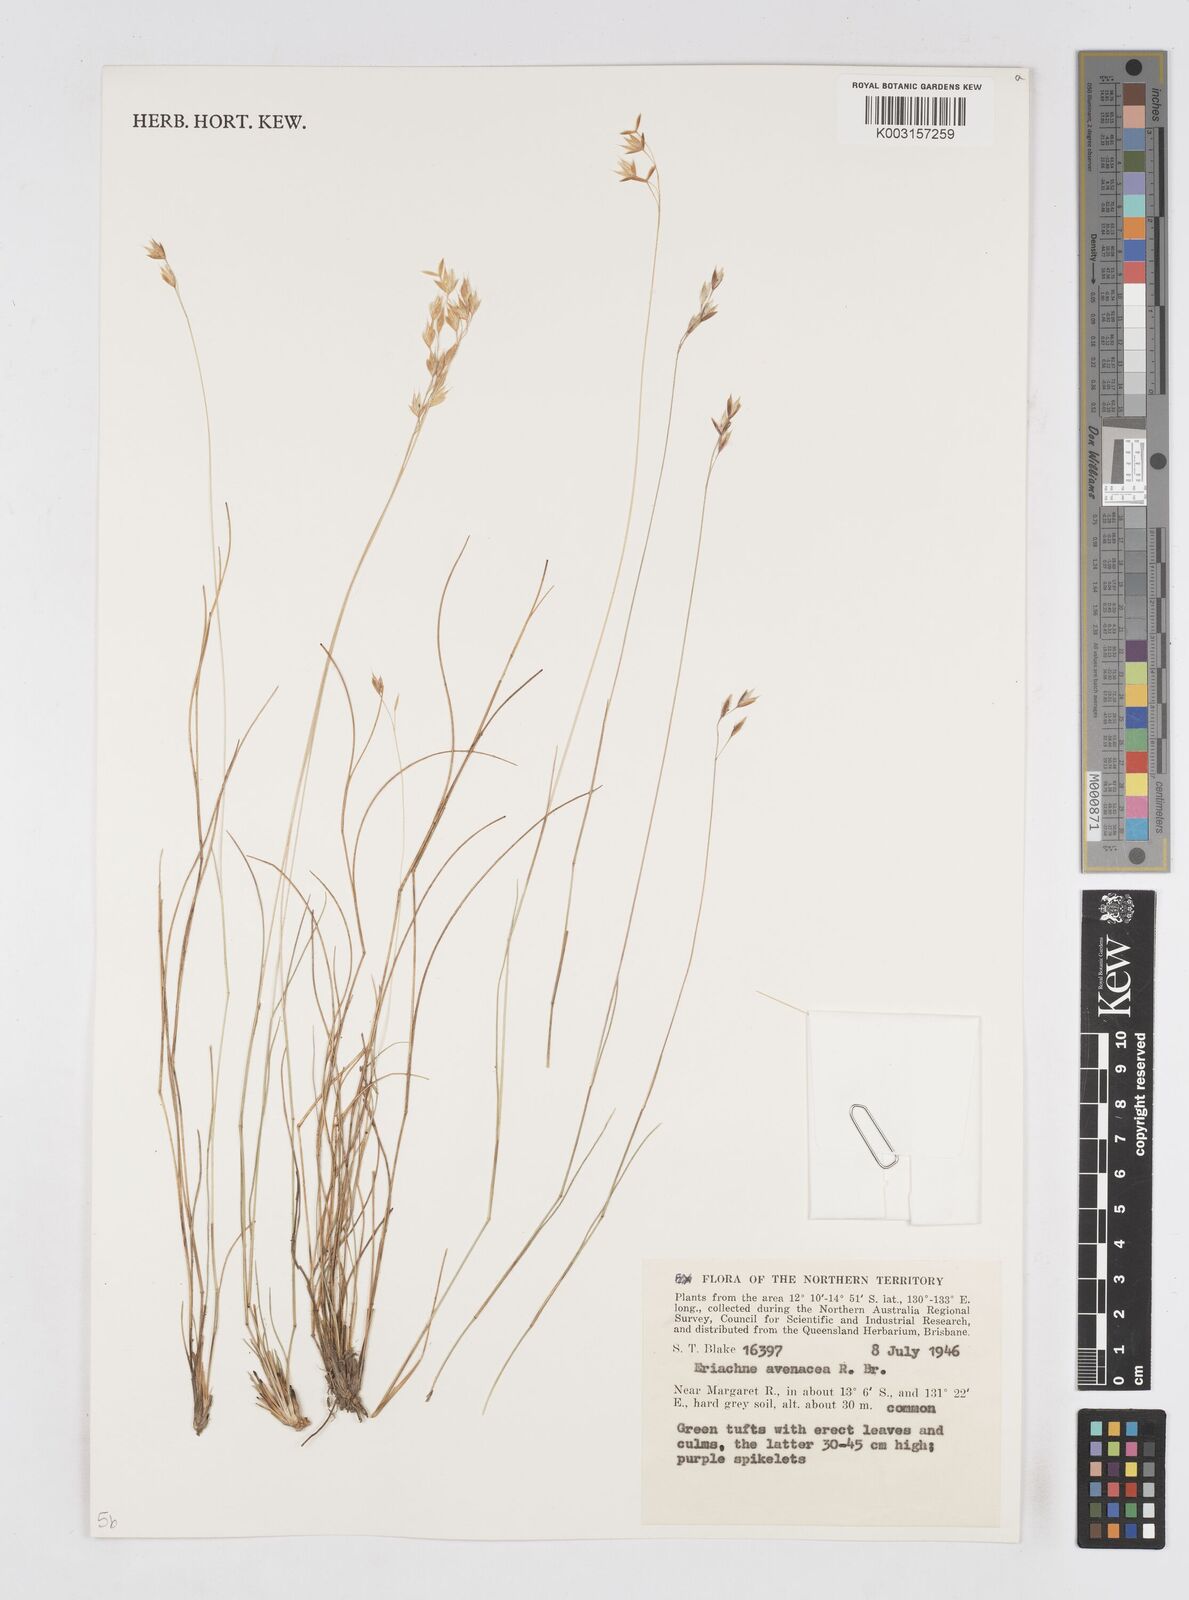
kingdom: Plantae
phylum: Tracheophyta
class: Liliopsida
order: Poales
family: Poaceae
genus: Eriachne
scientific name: Eriachne avenacea
